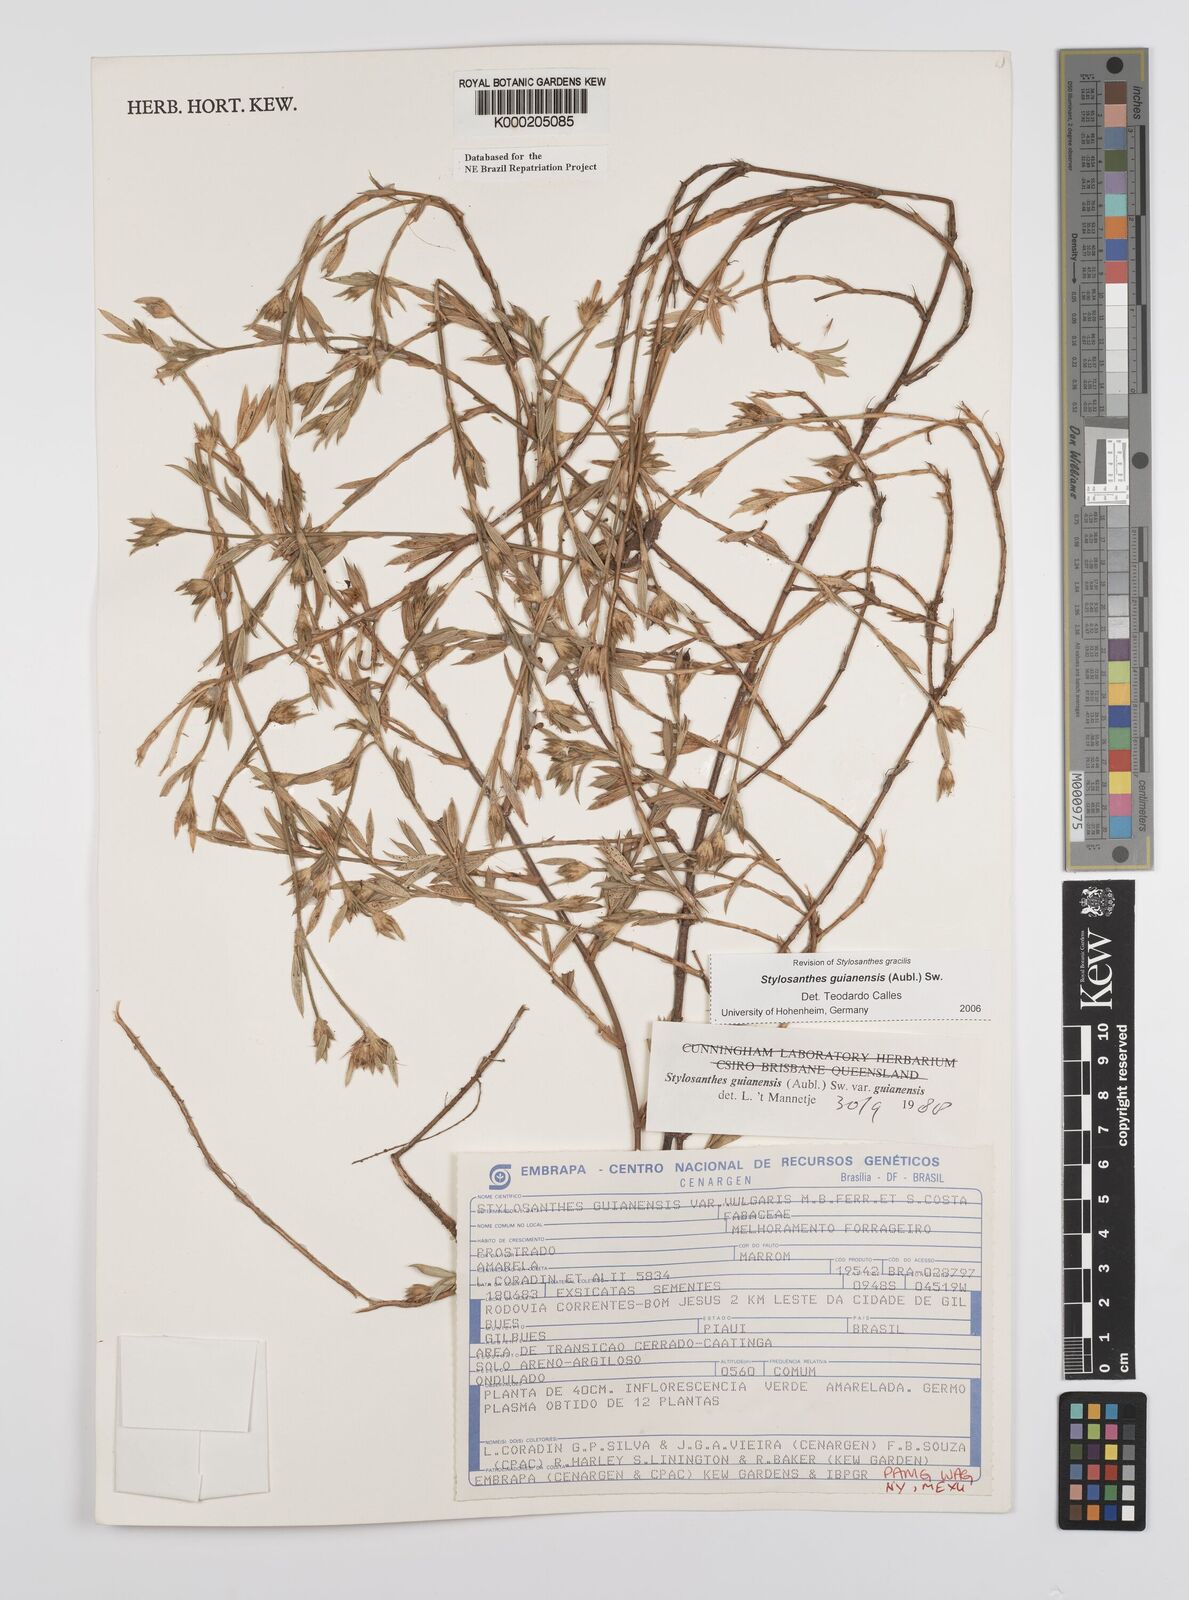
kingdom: Plantae
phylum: Tracheophyta
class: Magnoliopsida
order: Fabales
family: Fabaceae
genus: Stylosanthes
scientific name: Stylosanthes guianensis
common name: Pencil flower
